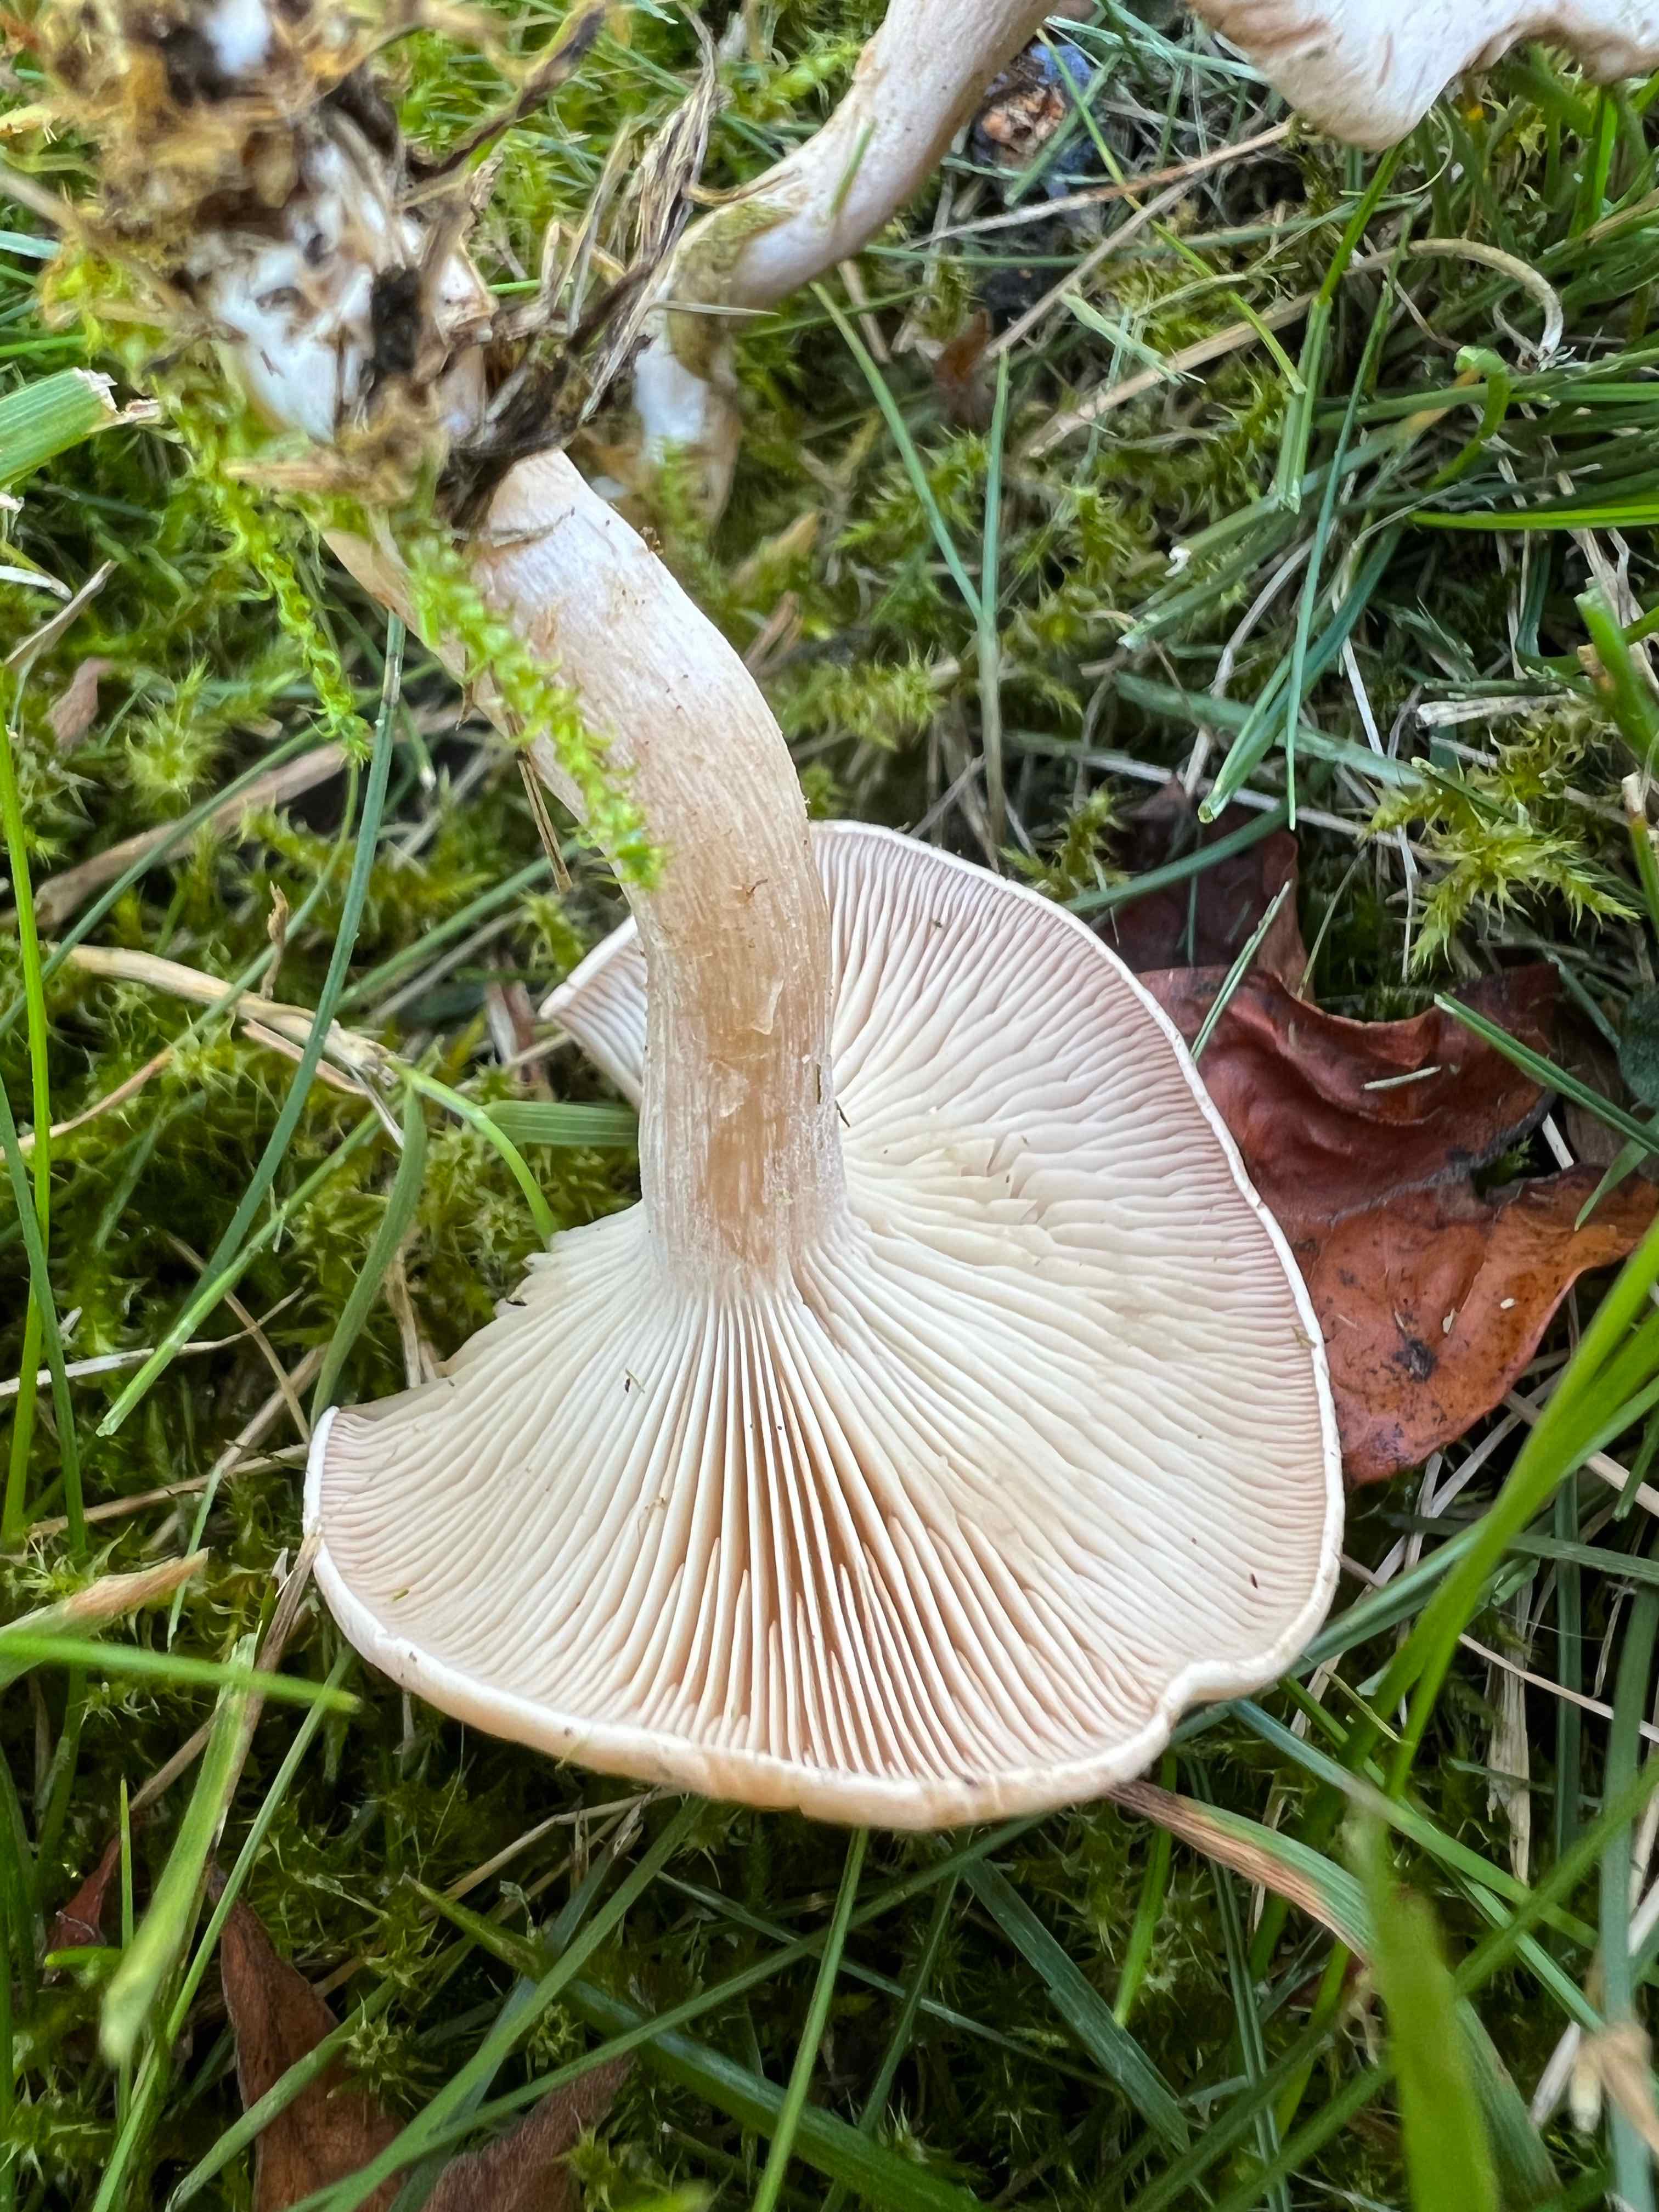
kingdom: Fungi
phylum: Basidiomycota
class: Agaricomycetes
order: Agaricales
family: Tricholomataceae
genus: Clitocybe
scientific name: Clitocybe
